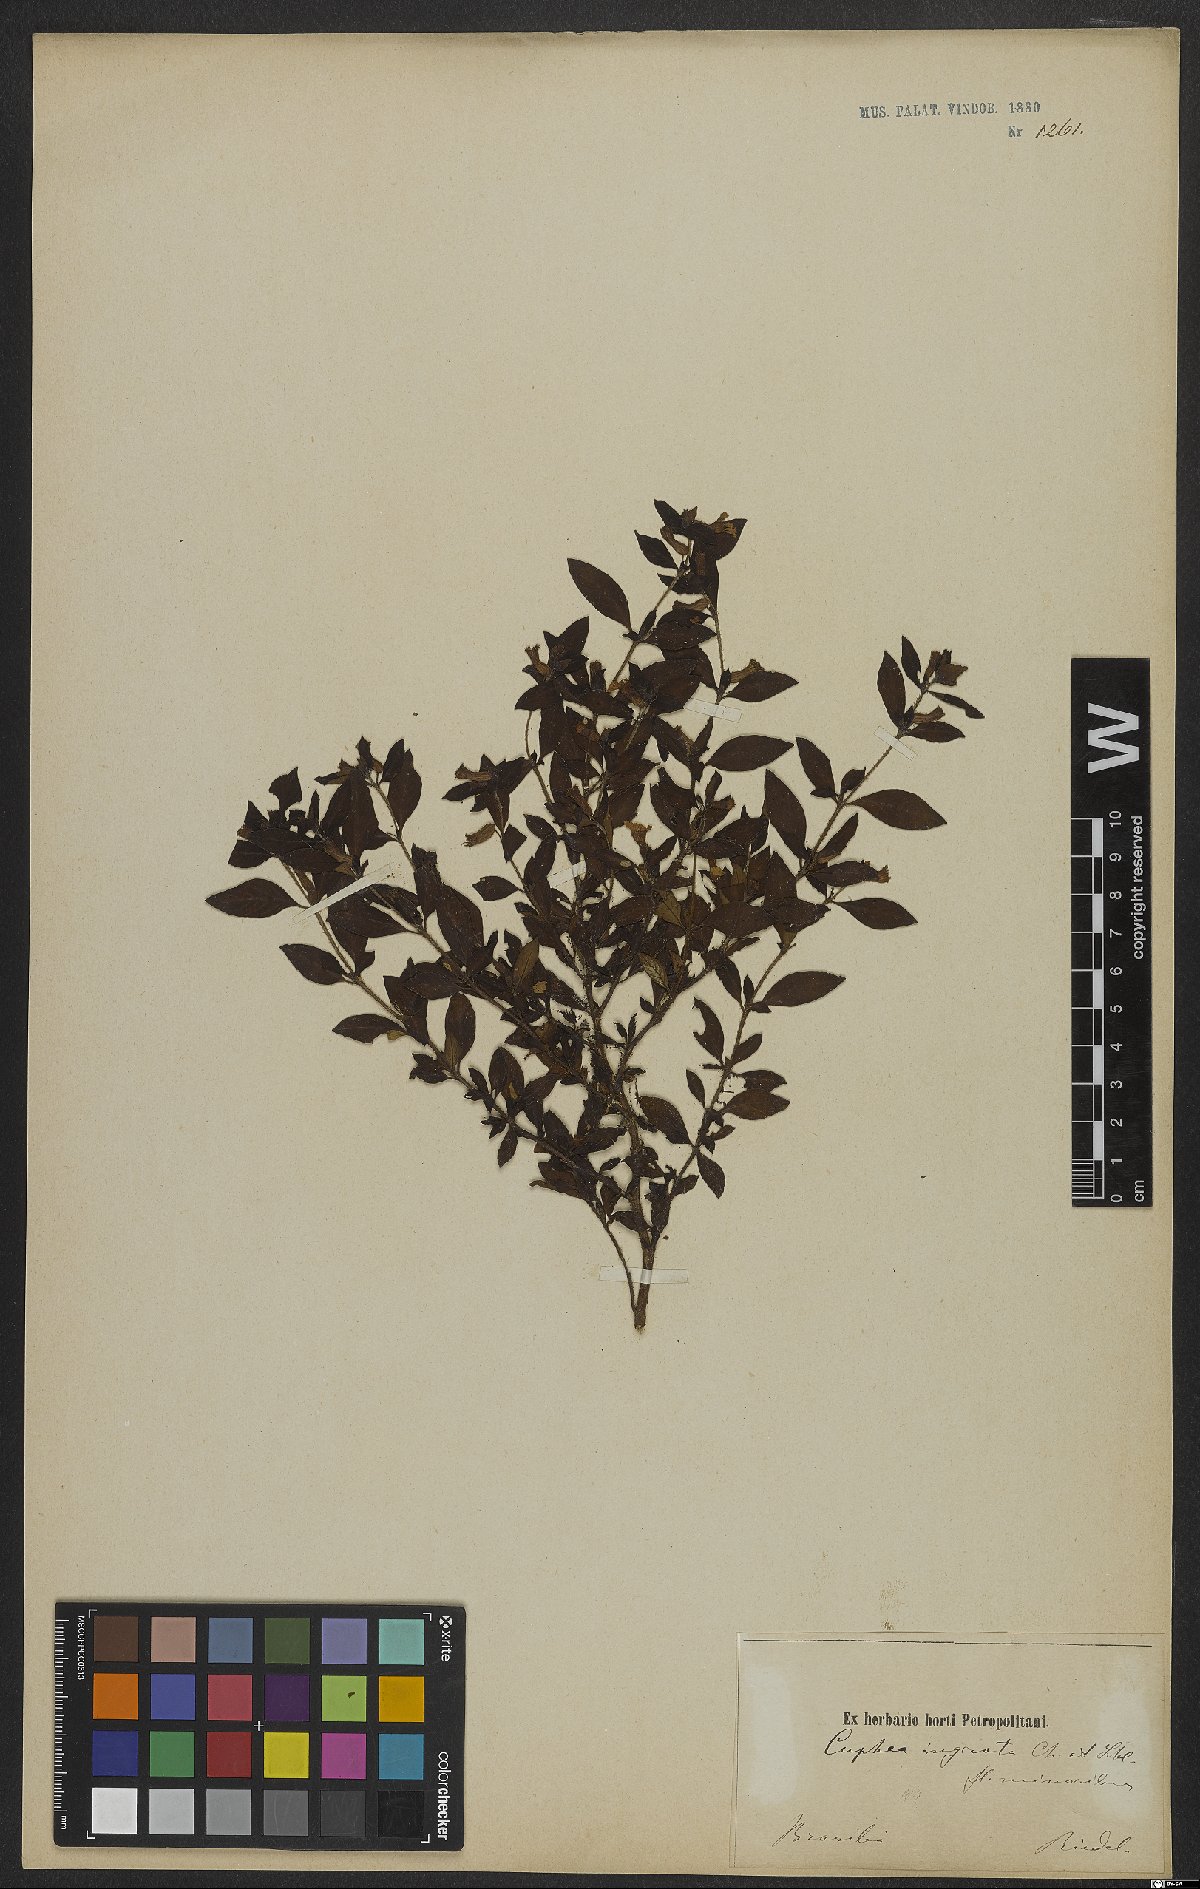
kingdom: Plantae
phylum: Tracheophyta
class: Magnoliopsida
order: Myrtales
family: Lythraceae
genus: Cuphea
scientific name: Cuphea ingrata
